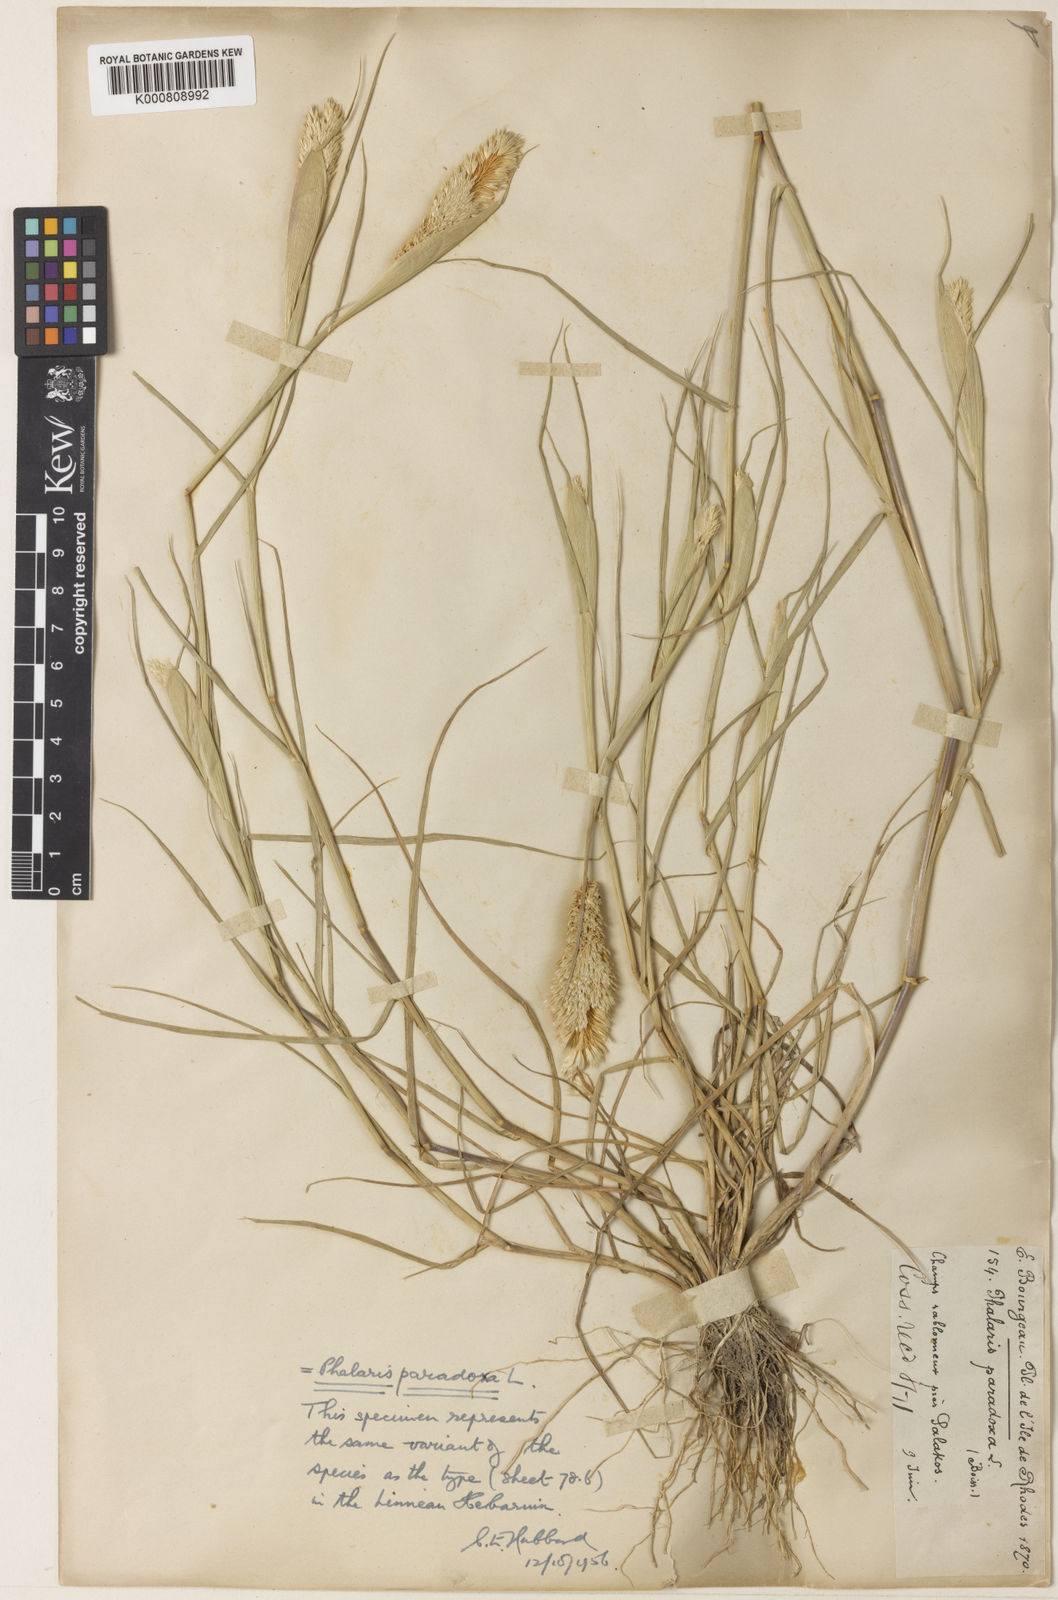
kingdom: Plantae
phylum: Tracheophyta
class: Liliopsida
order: Poales
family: Poaceae
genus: Phalaris
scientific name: Phalaris paradoxa
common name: Awned canary-grass
